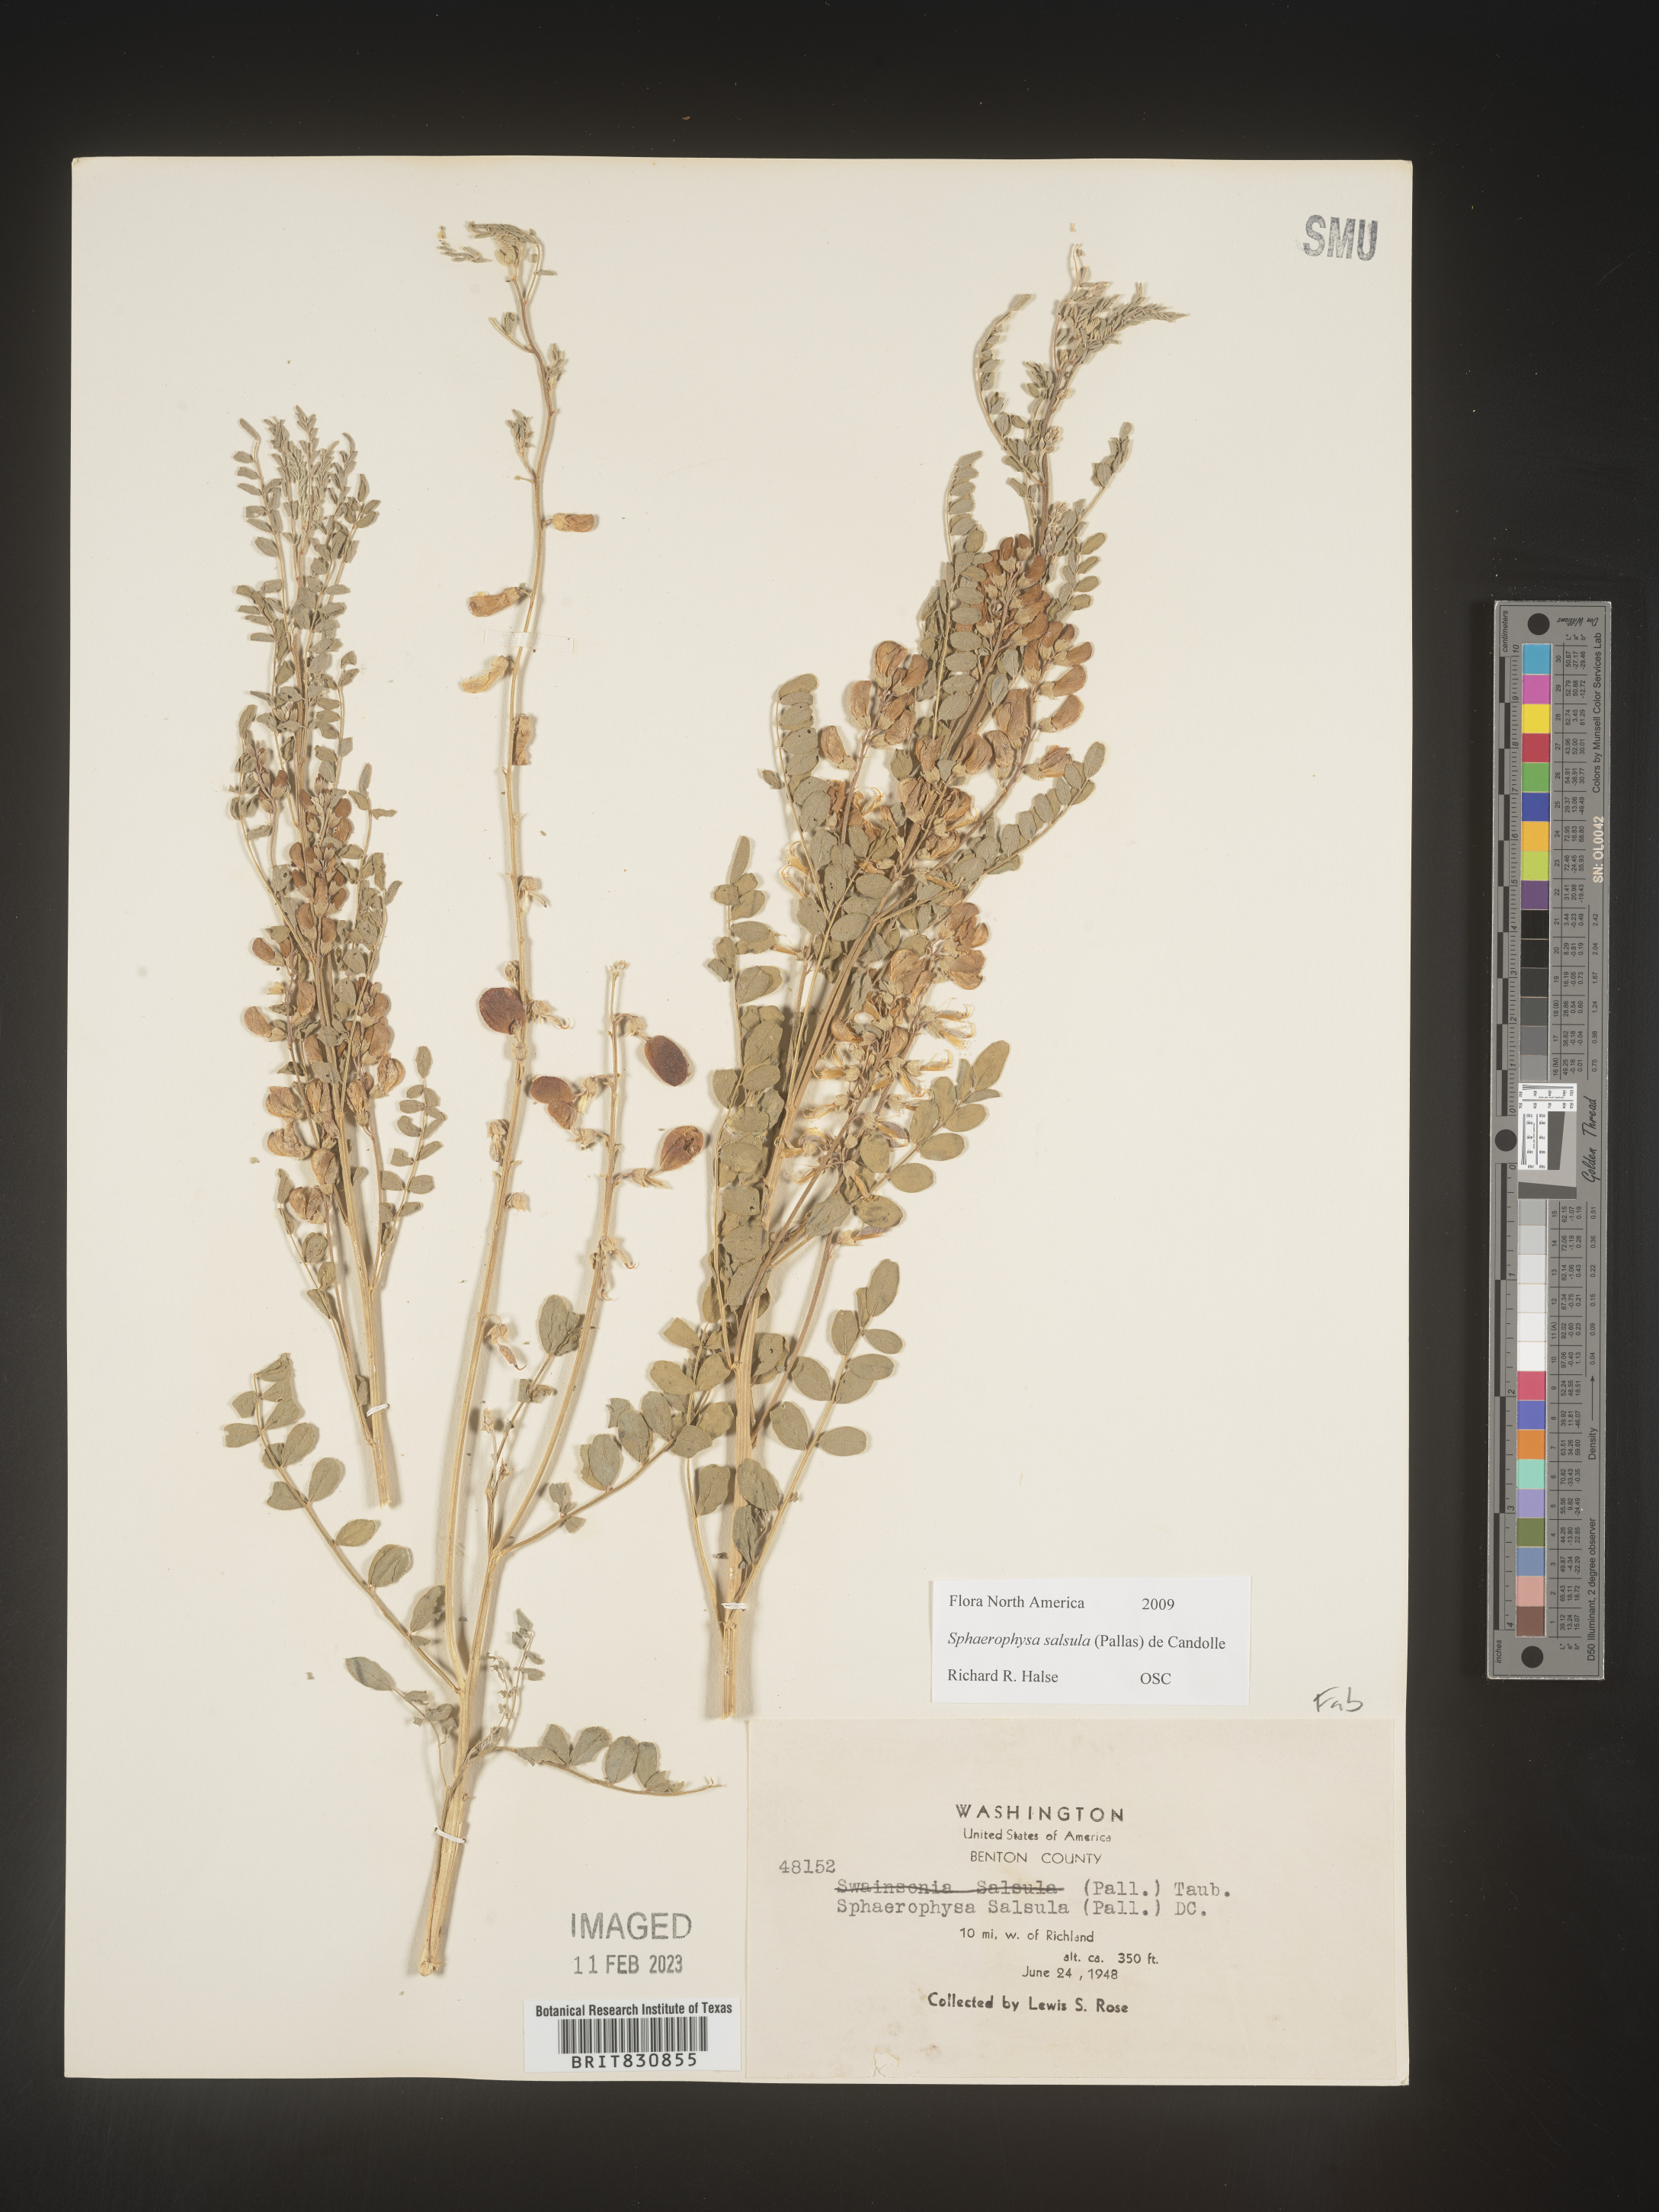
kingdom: Plantae
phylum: Tracheophyta
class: Magnoliopsida
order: Fabales
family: Fabaceae
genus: Sphaerophysa
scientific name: Sphaerophysa
